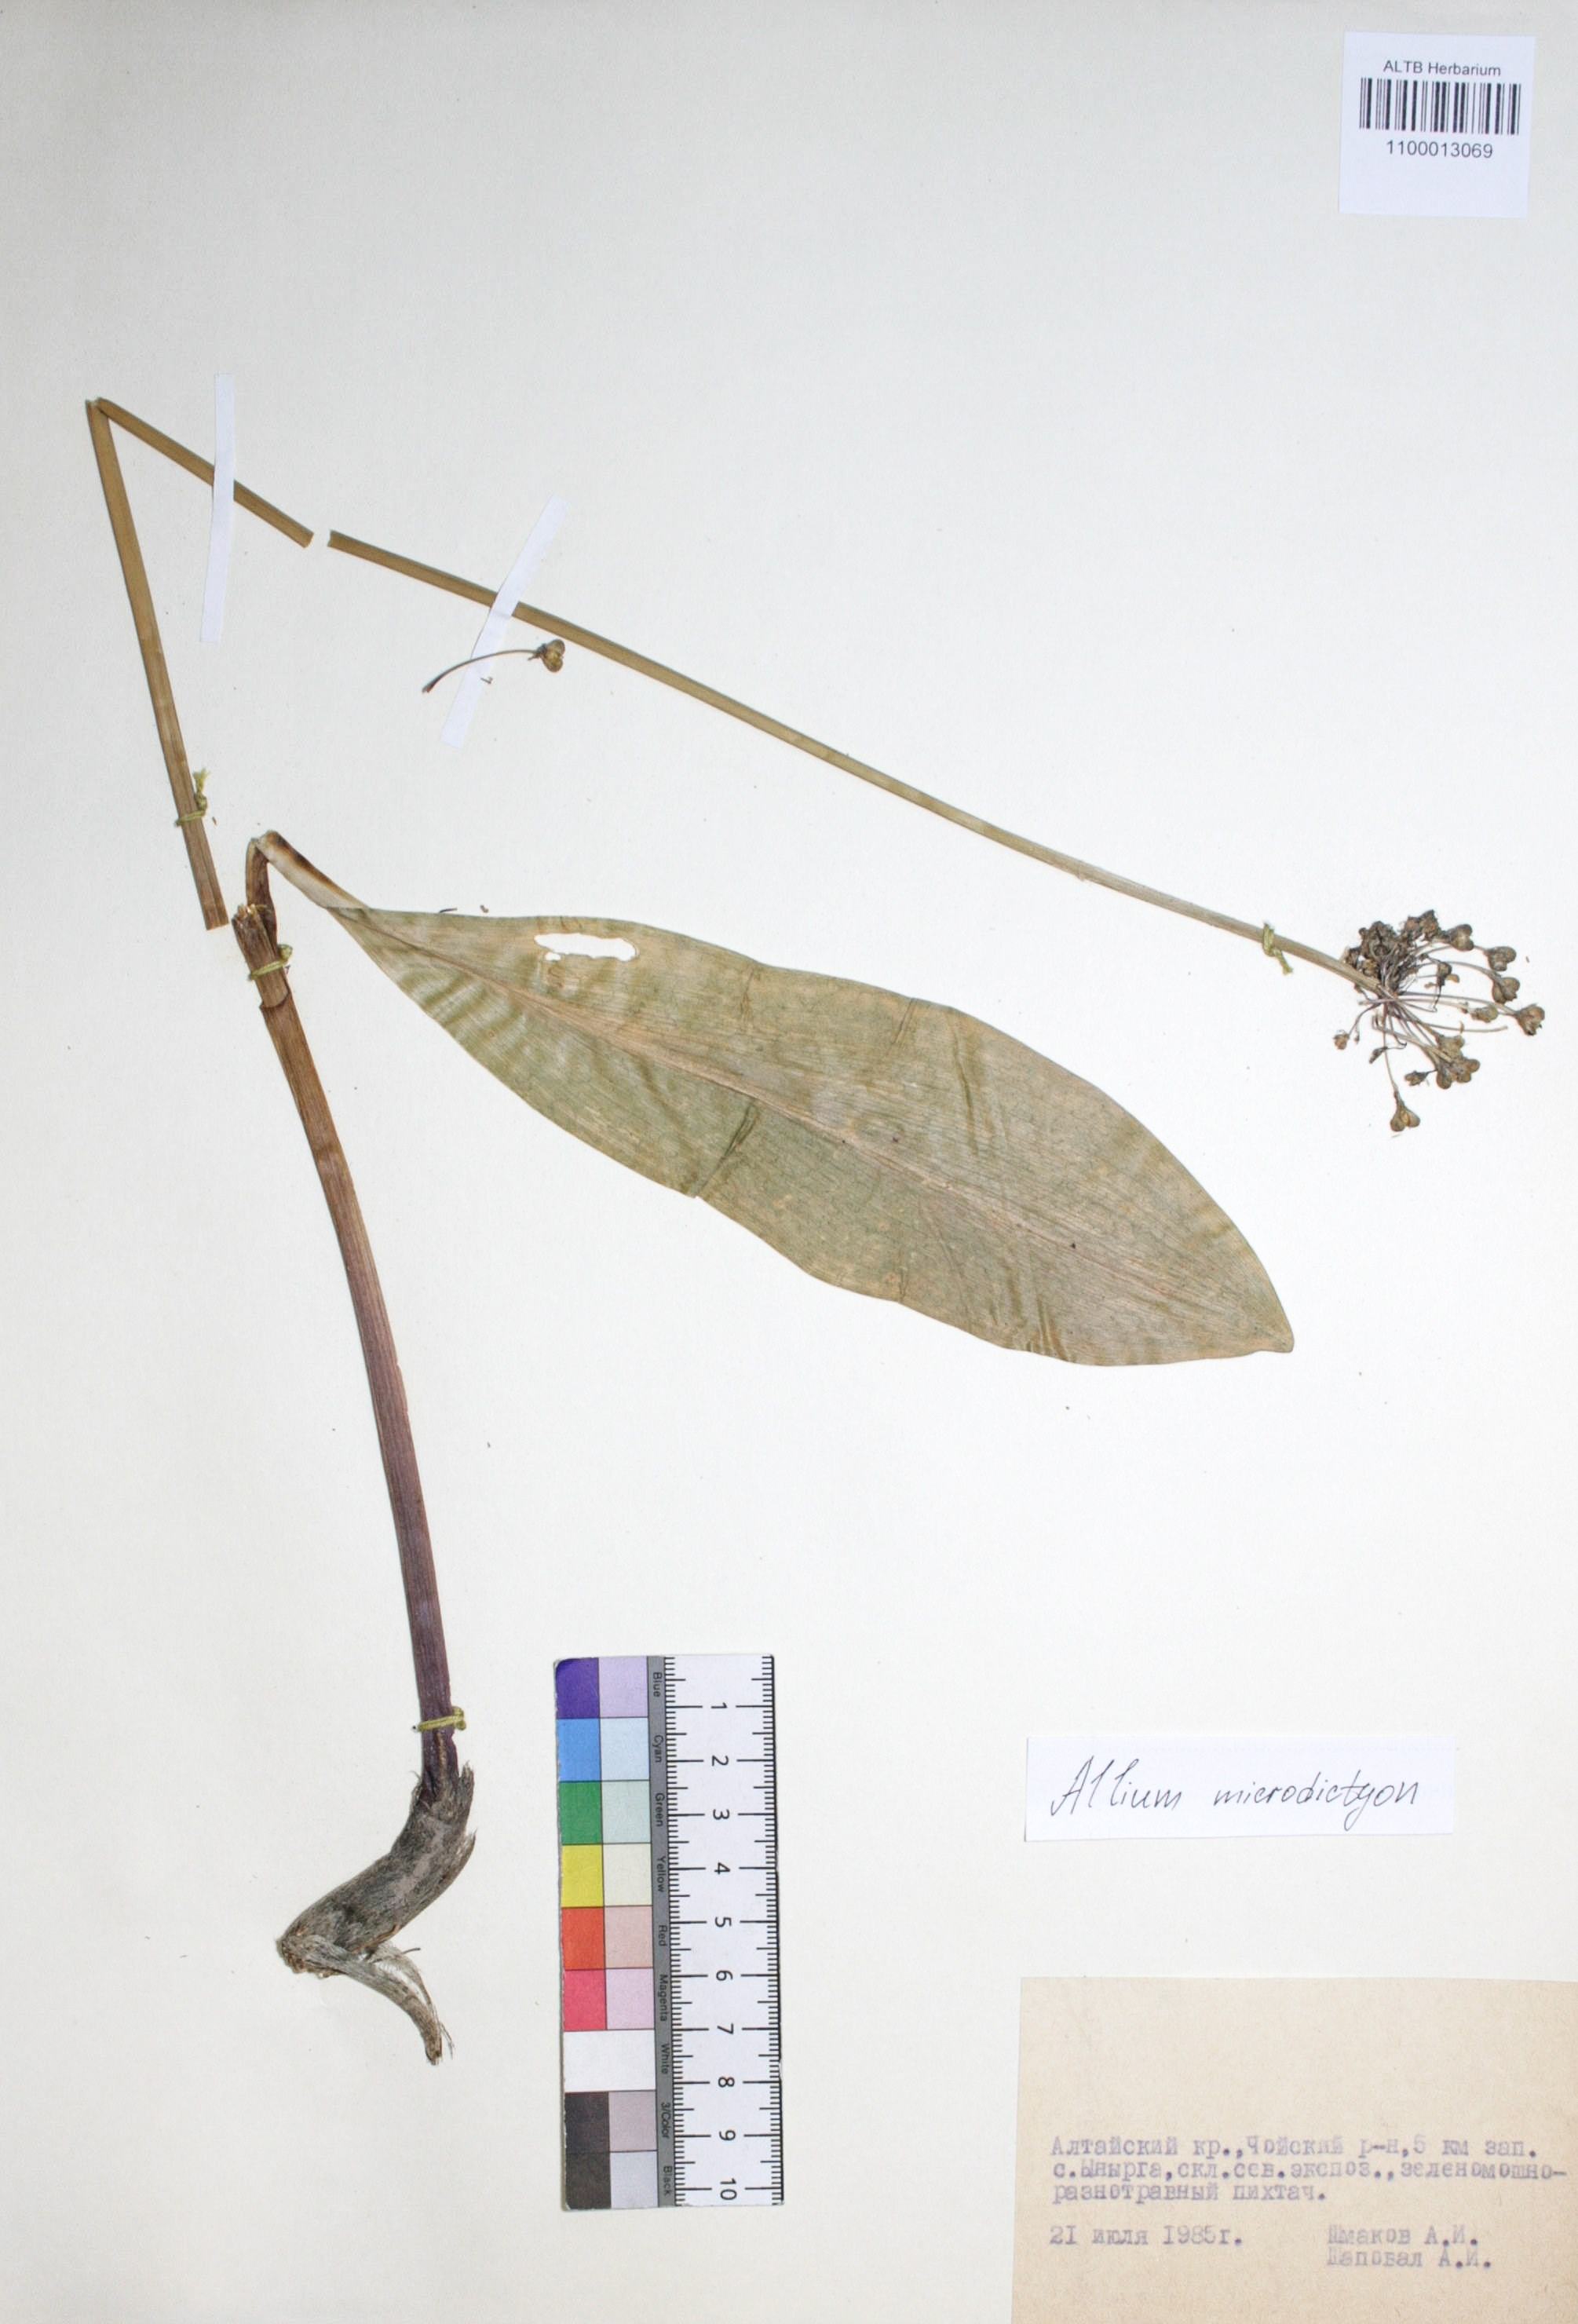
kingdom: Plantae
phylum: Tracheophyta
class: Liliopsida
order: Asparagales
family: Amaryllidaceae
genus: Allium
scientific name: Allium microdictyon
